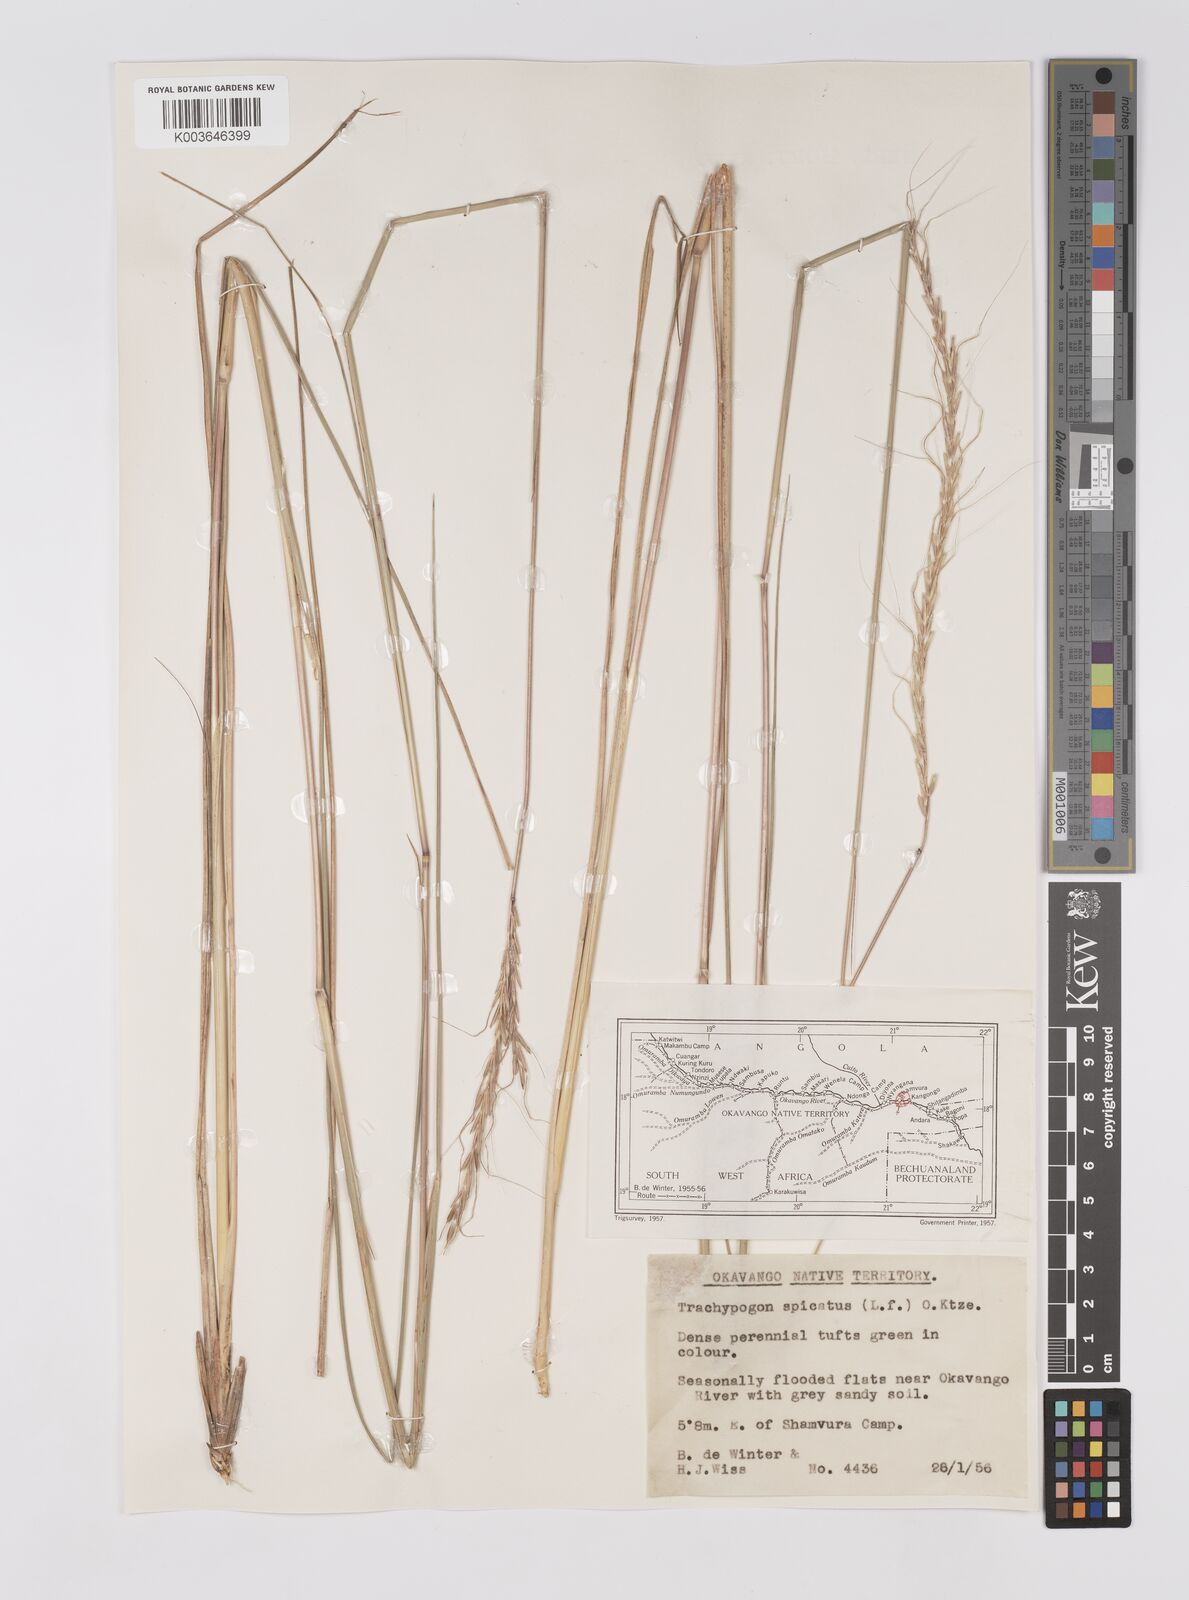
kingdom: Plantae
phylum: Tracheophyta
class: Liliopsida
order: Poales
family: Poaceae
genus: Trachypogon
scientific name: Trachypogon spicatus
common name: Crinkle-awn
